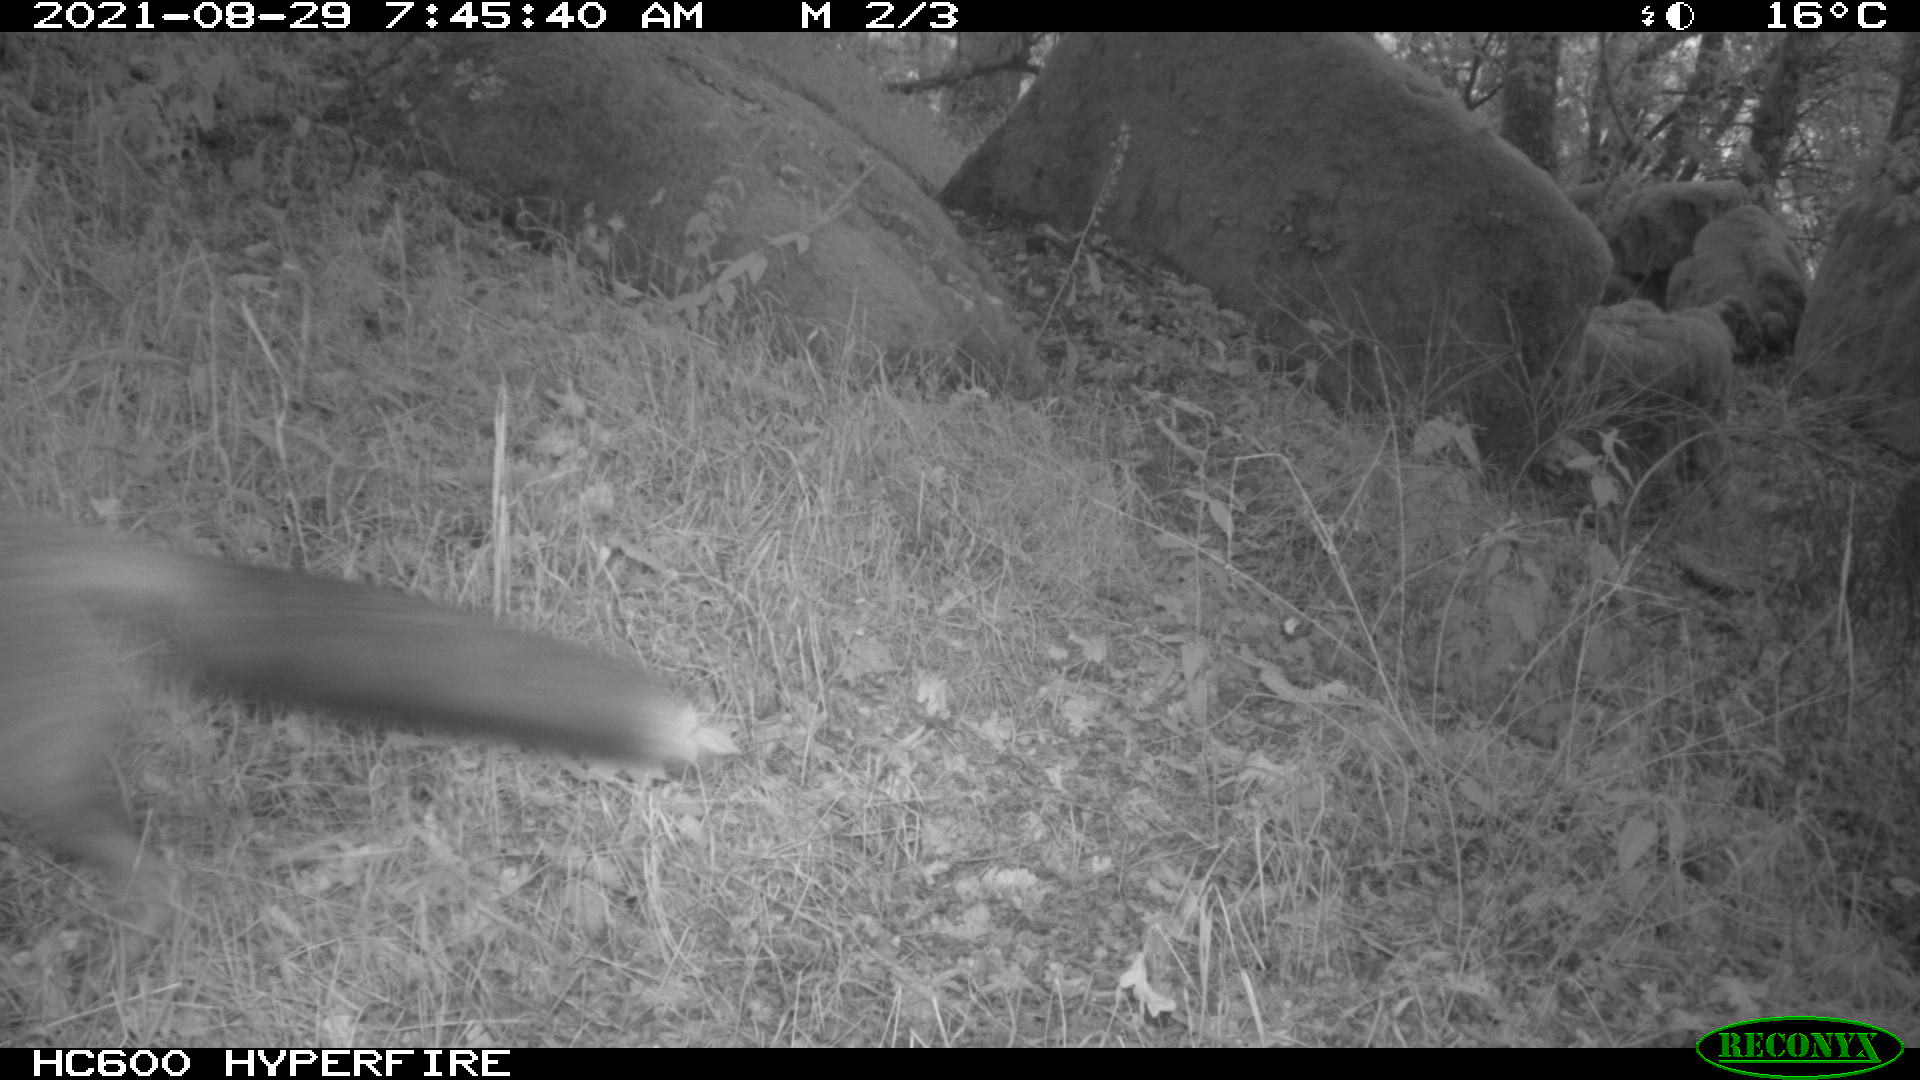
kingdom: Animalia
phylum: Chordata
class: Mammalia
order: Carnivora
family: Canidae
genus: Vulpes
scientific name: Vulpes vulpes
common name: Red fox
